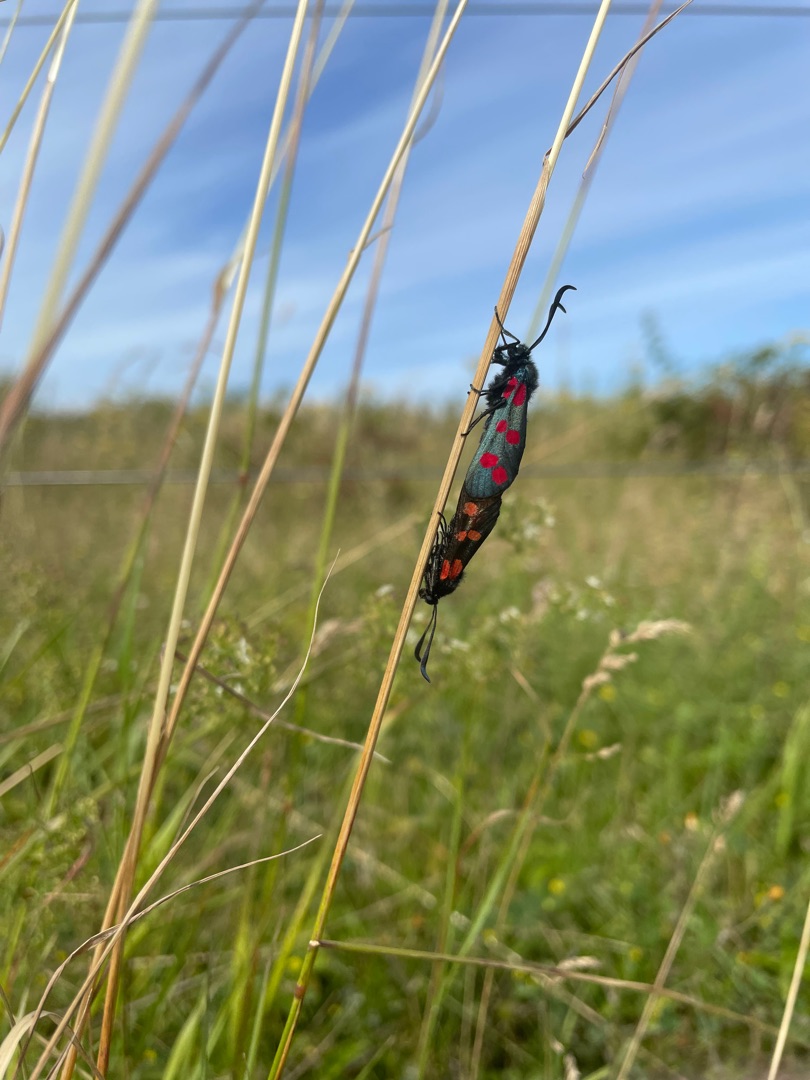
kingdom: Animalia
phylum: Arthropoda
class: Insecta
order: Lepidoptera
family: Zygaenidae
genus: Zygaena
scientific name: Zygaena filipendulae
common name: Seksplettet køllesværmer
